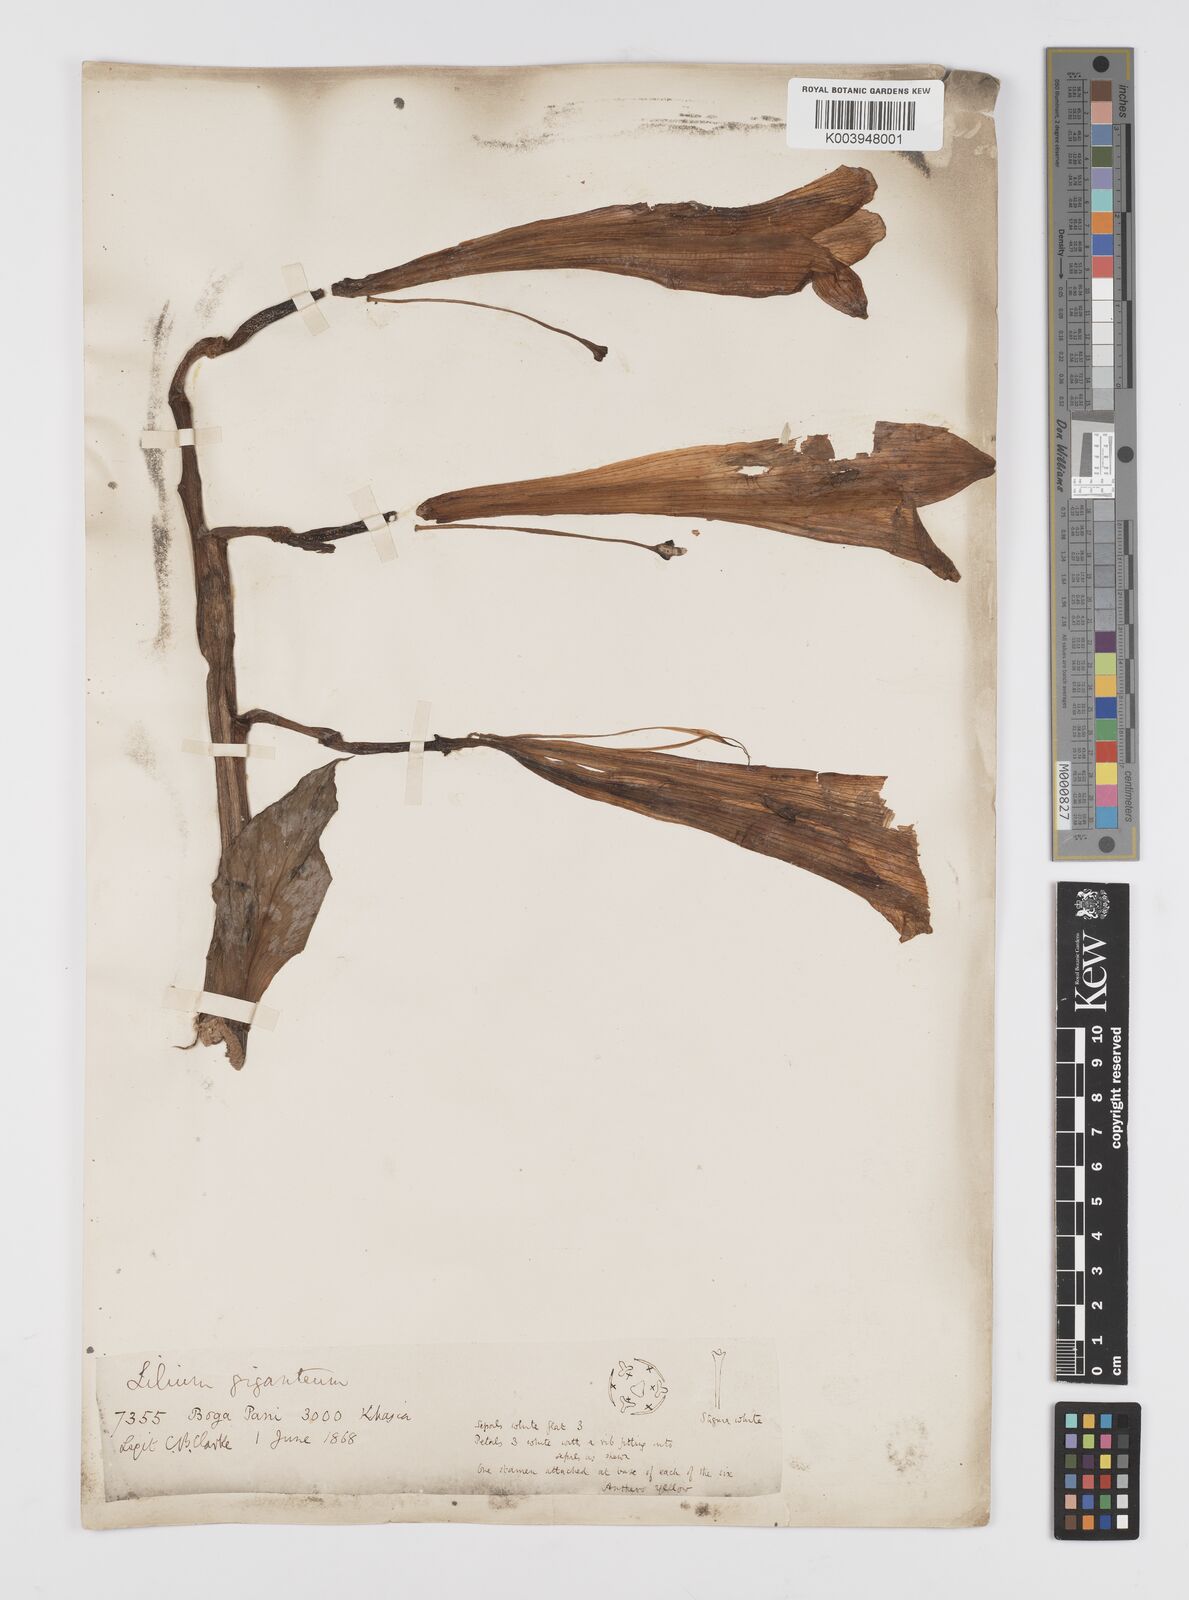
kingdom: Plantae
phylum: Tracheophyta
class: Liliopsida
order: Liliales
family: Liliaceae
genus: Cardiocrinum
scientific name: Cardiocrinum giganteum
